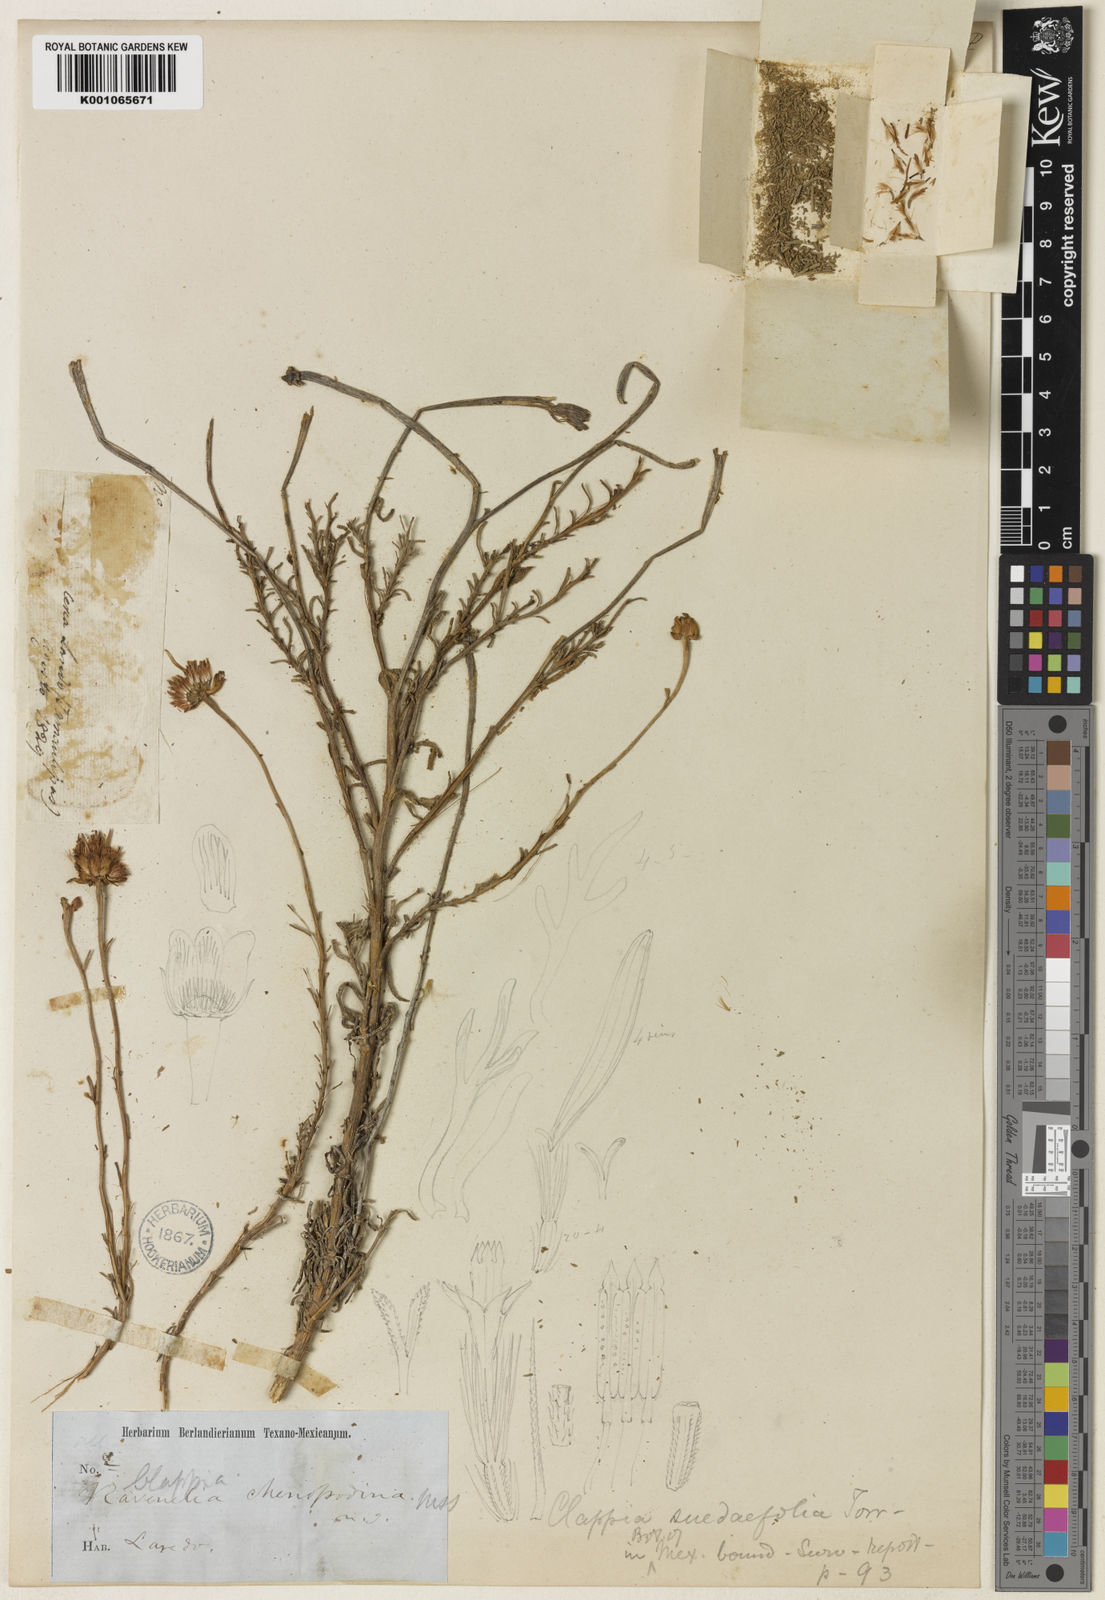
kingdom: Plantae
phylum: Tracheophyta
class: Magnoliopsida
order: Asterales
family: Asteraceae
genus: Clappia
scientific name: Clappia
